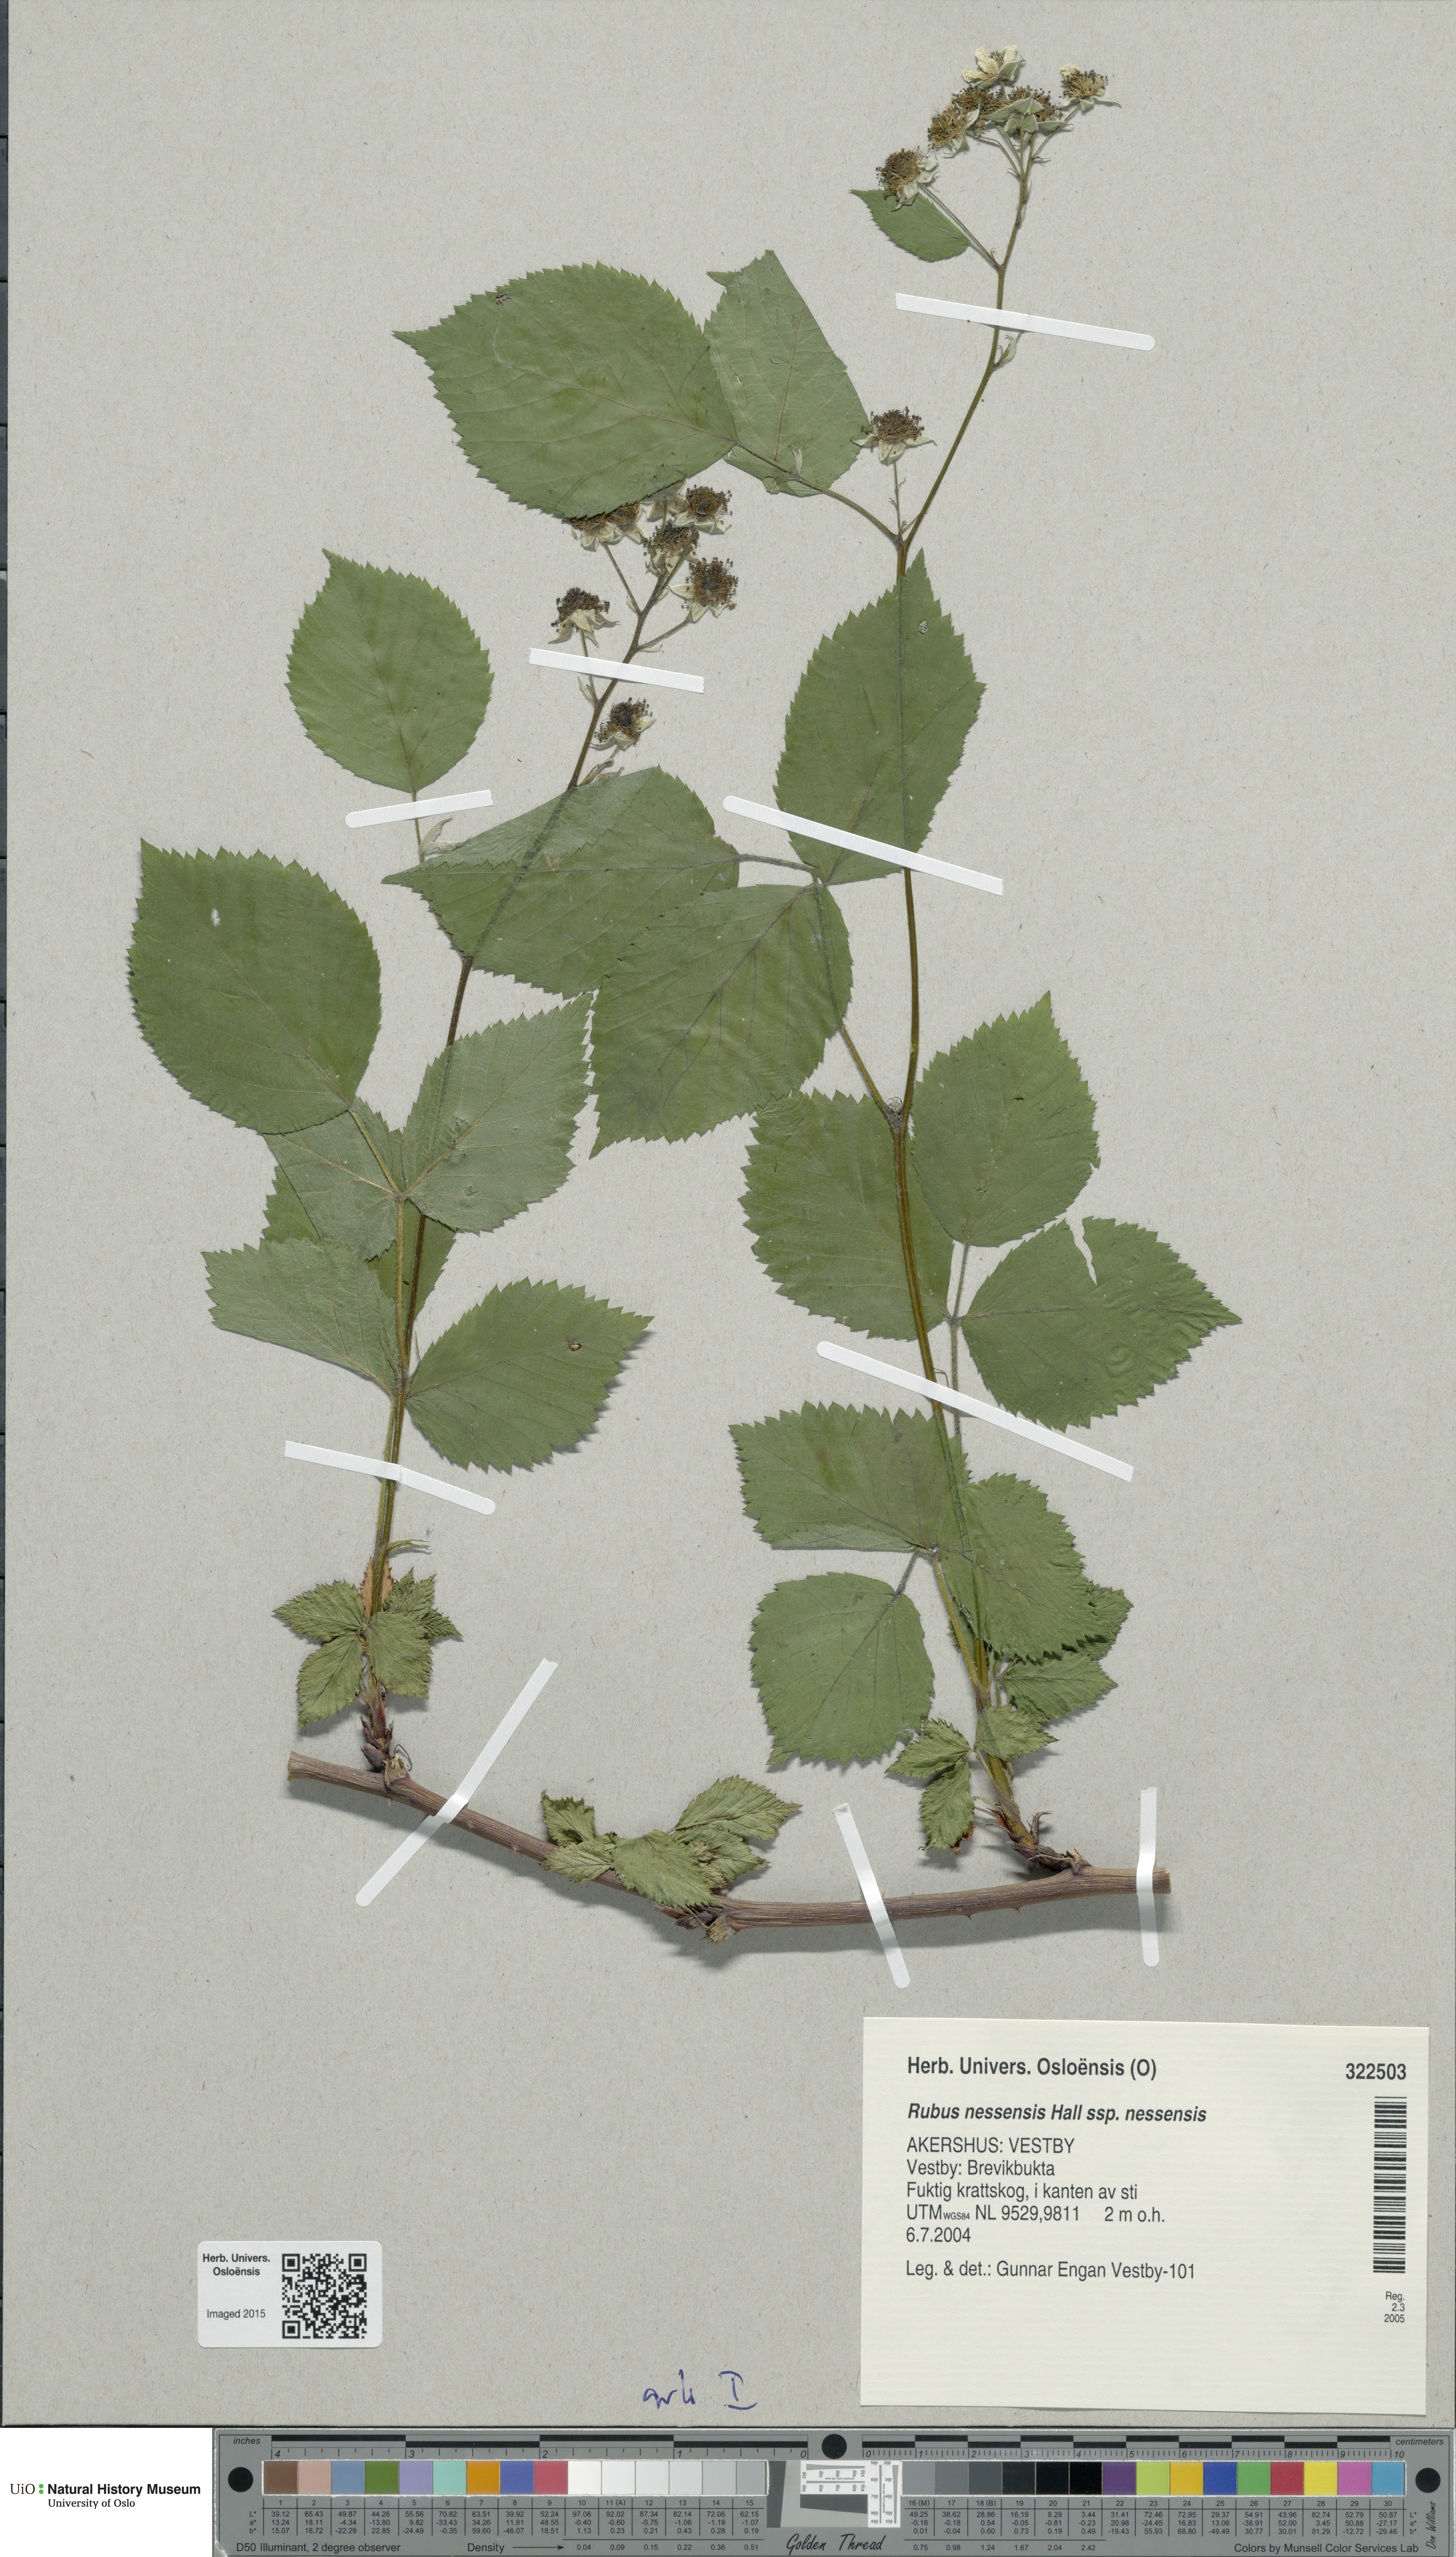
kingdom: Plantae
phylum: Tracheophyta
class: Magnoliopsida
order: Rosales
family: Rosaceae
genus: Rubus
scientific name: Rubus polonicus
